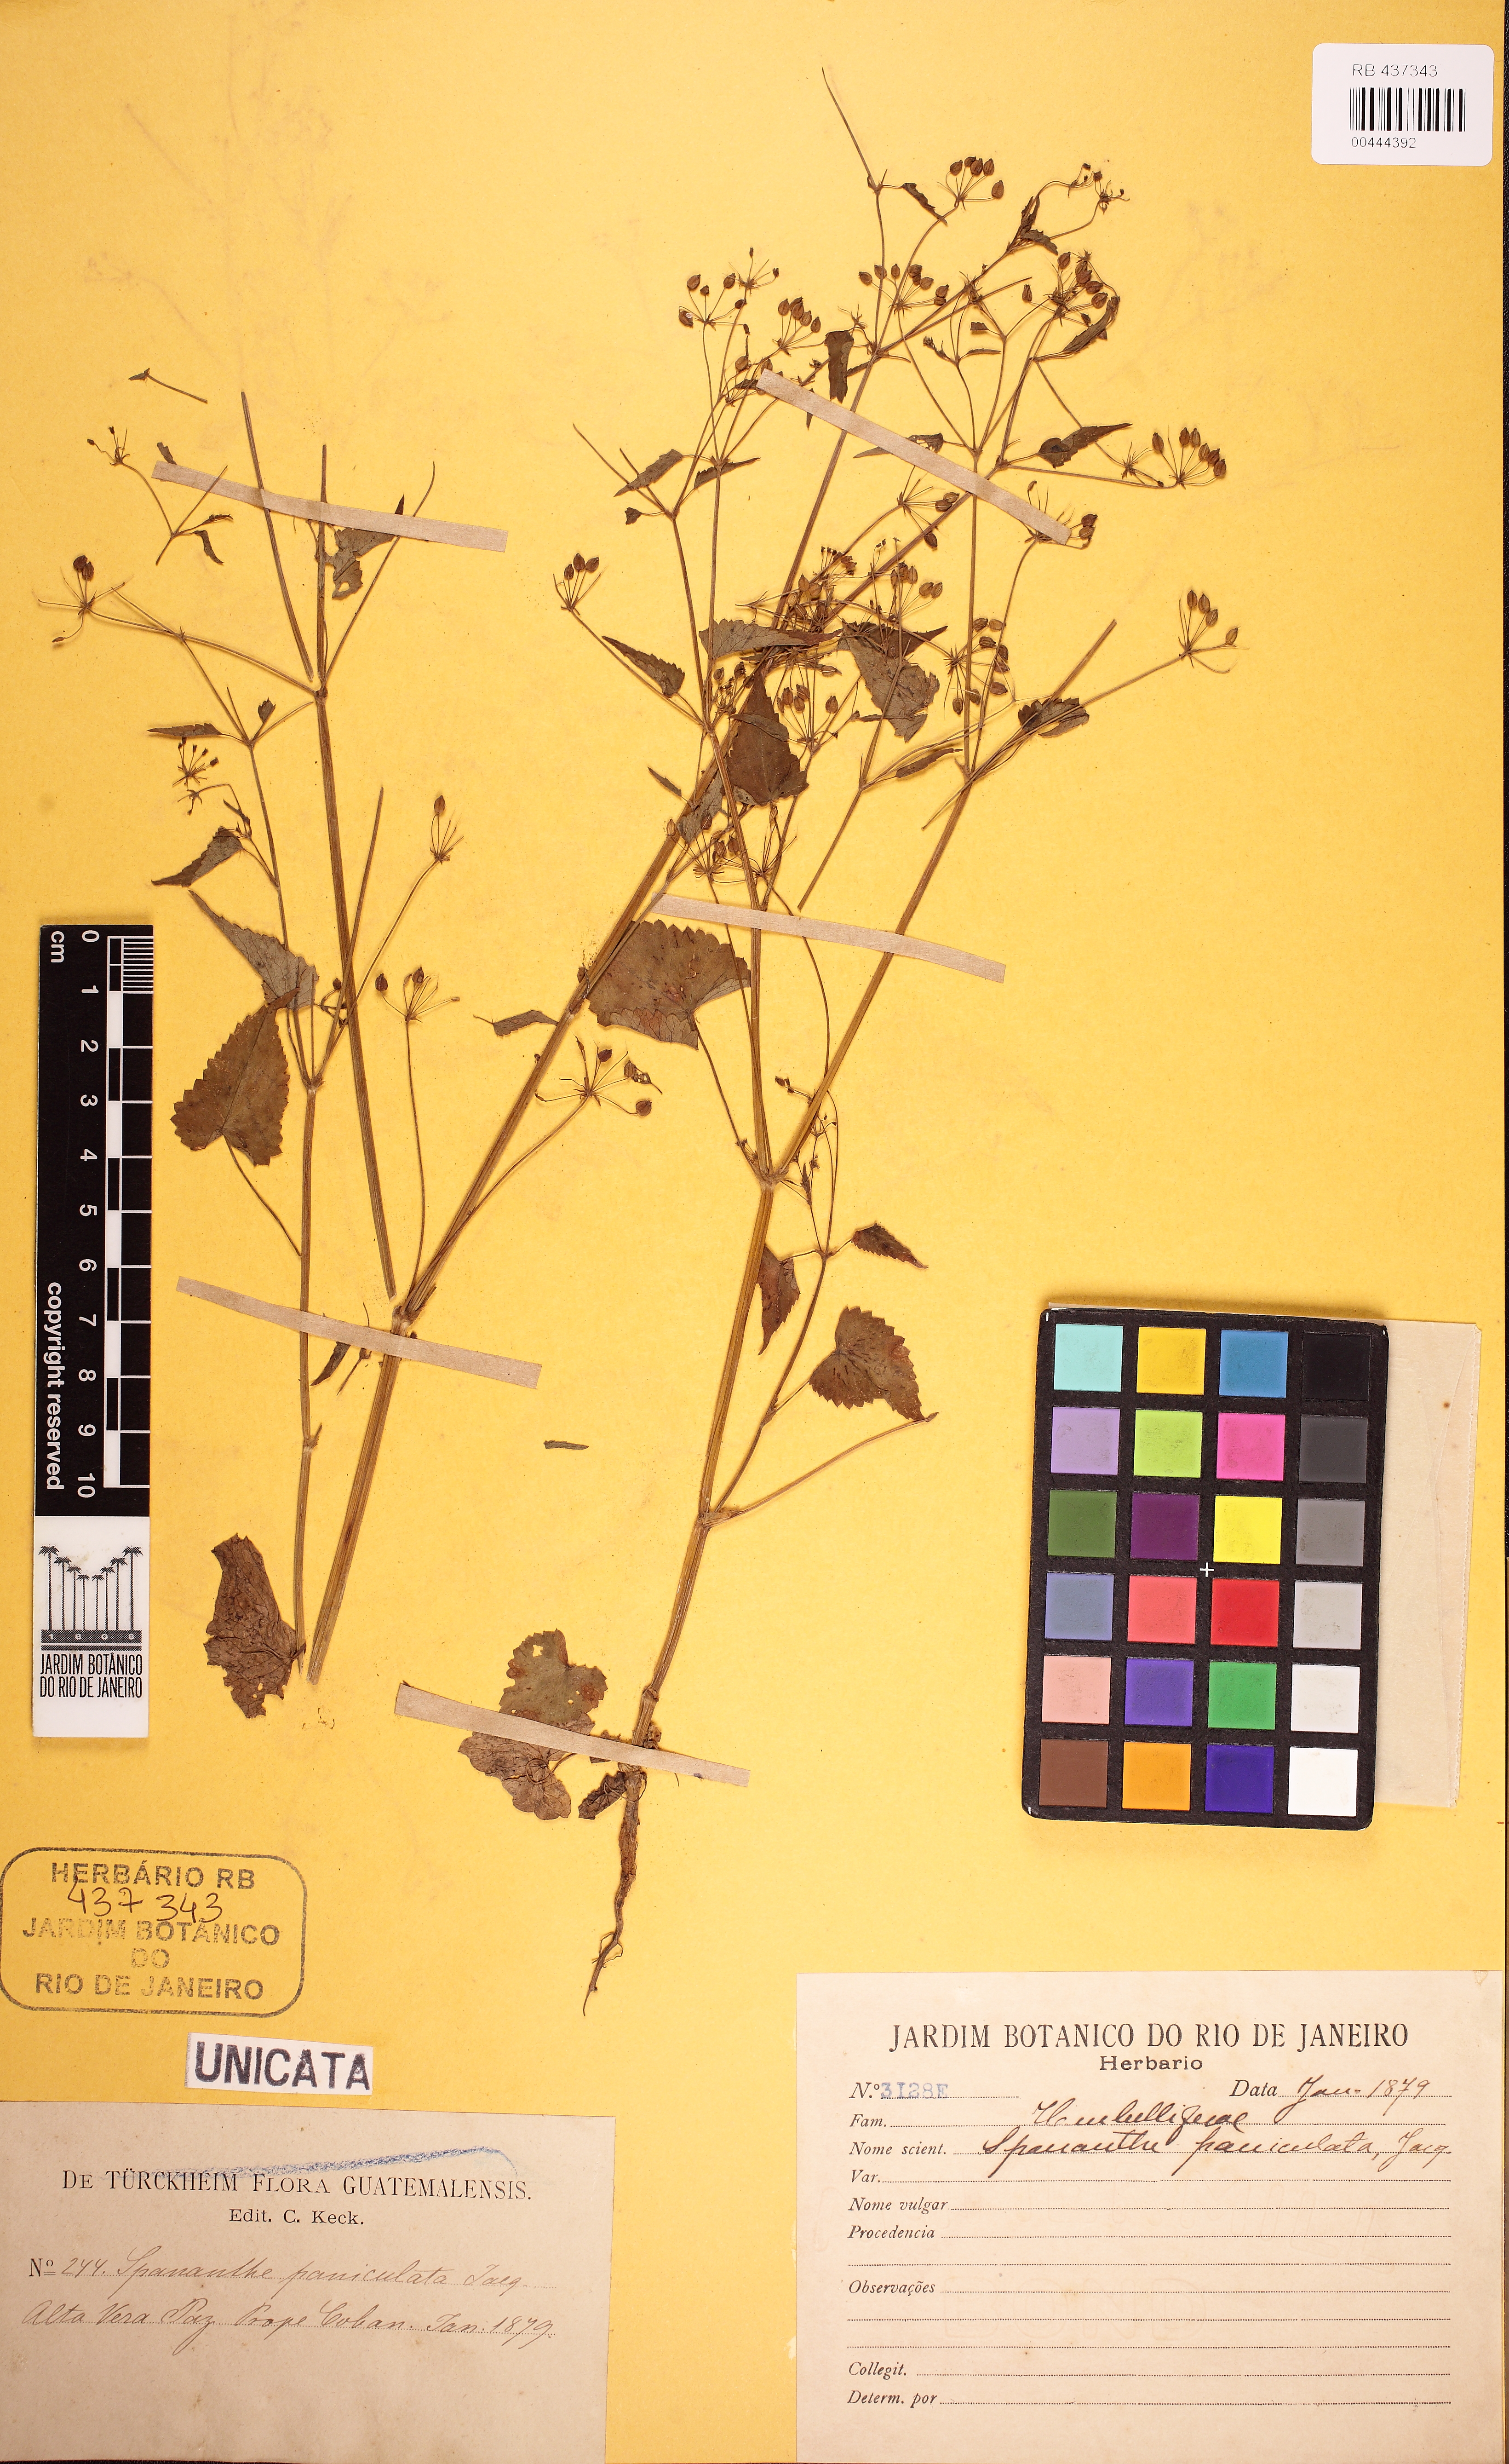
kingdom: Plantae
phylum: Tracheophyta
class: Magnoliopsida
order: Apiales
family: Apiaceae
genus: Spananthe
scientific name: Spananthe paniculata
